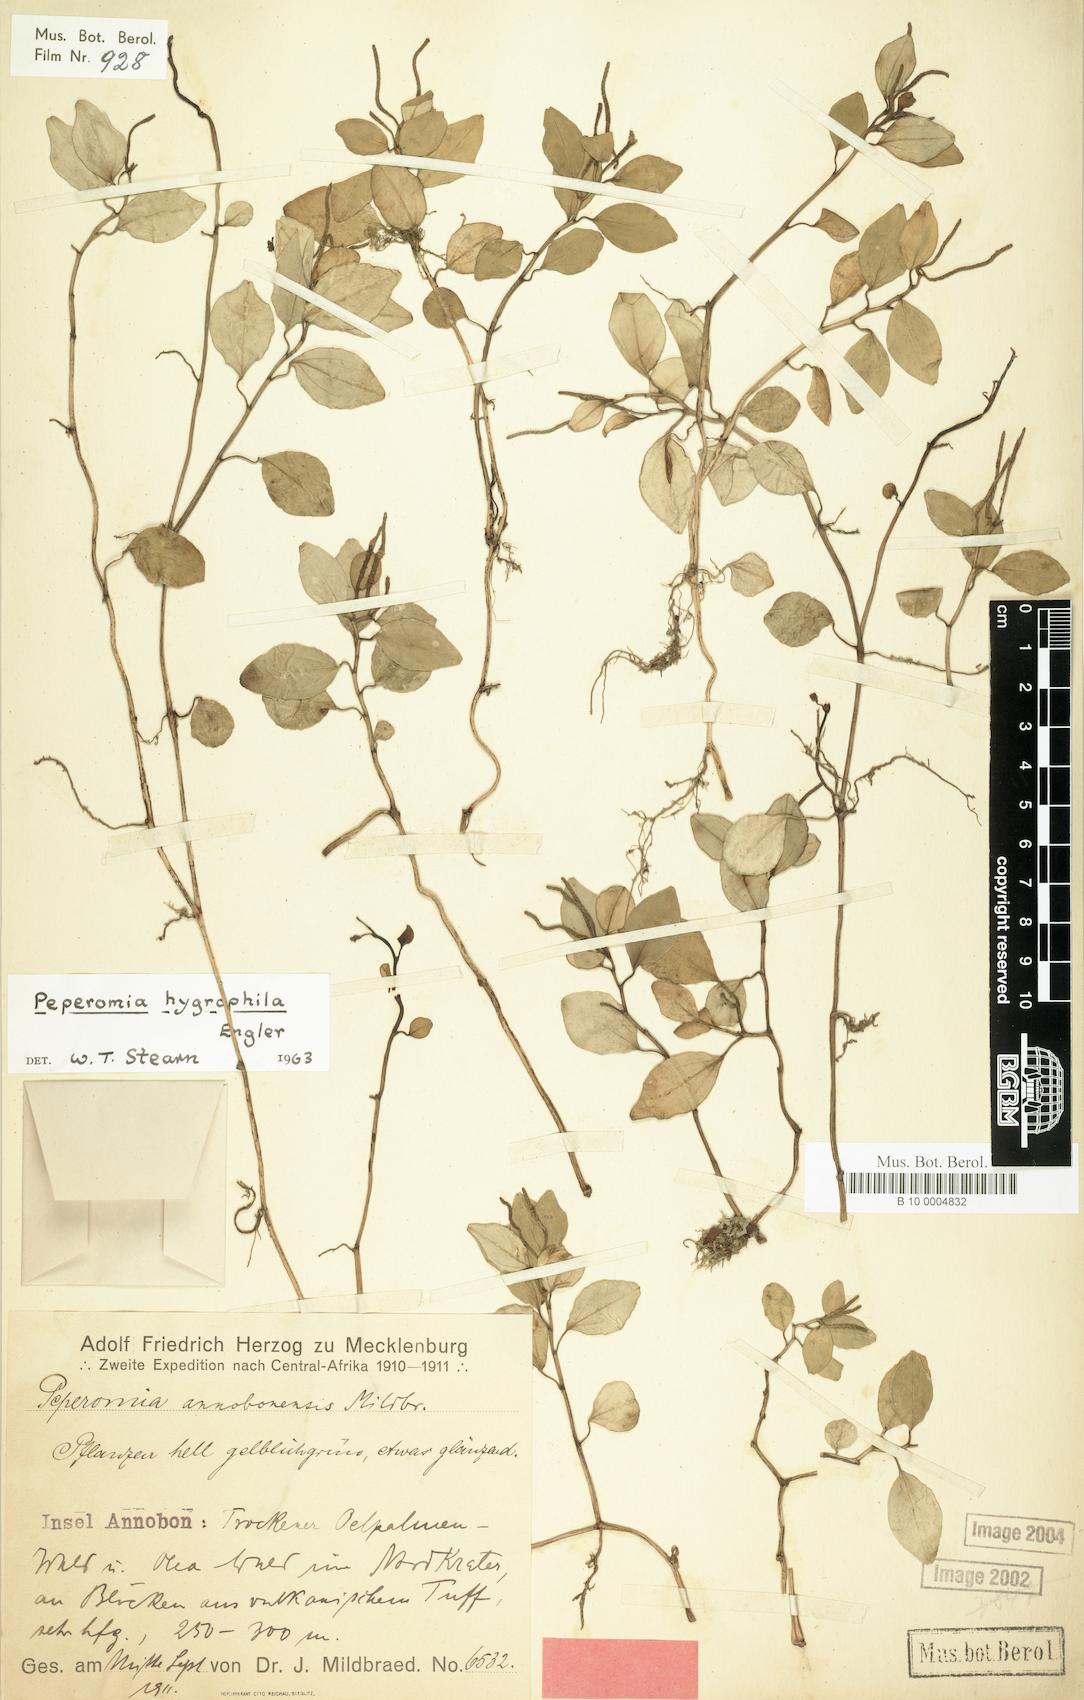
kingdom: Plantae
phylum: Tracheophyta
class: Magnoliopsida
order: Piperales
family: Piperaceae
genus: Peperomia
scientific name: Peperomia vulcanica
